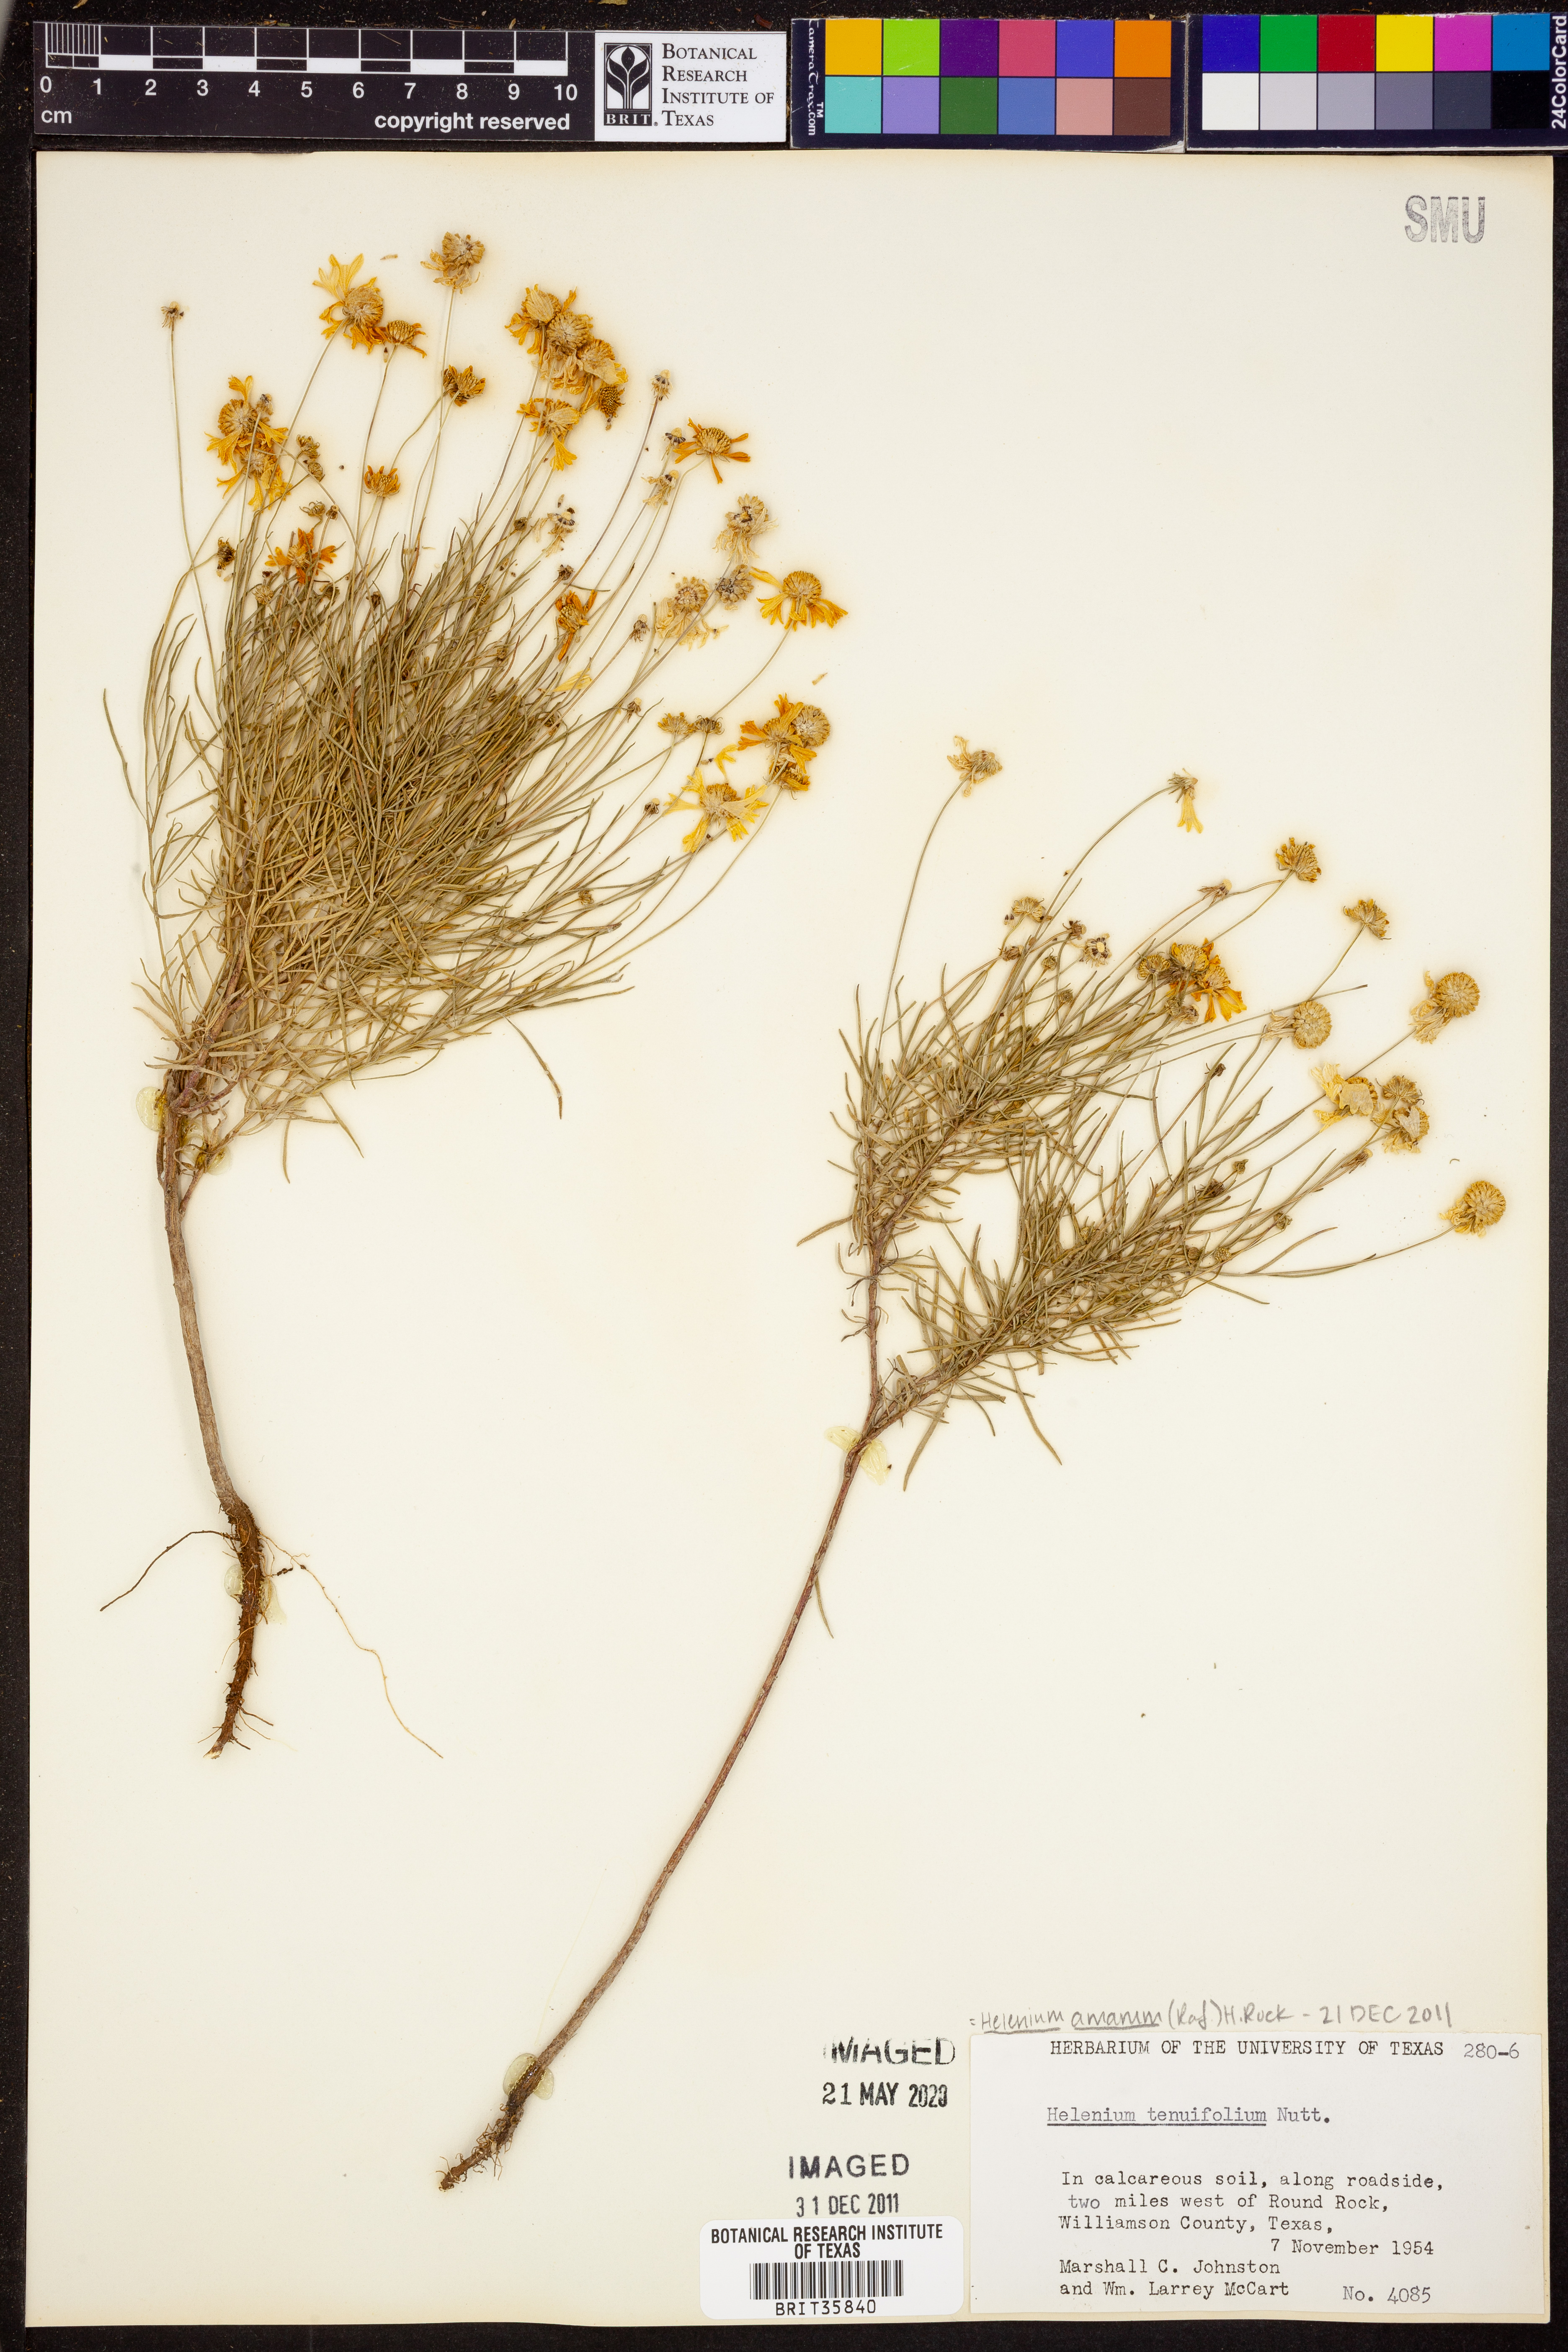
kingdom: Plantae
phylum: Tracheophyta
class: Magnoliopsida
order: Asterales
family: Asteraceae
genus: Helenium
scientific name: Helenium amarum
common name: Bitter sneezeweed
